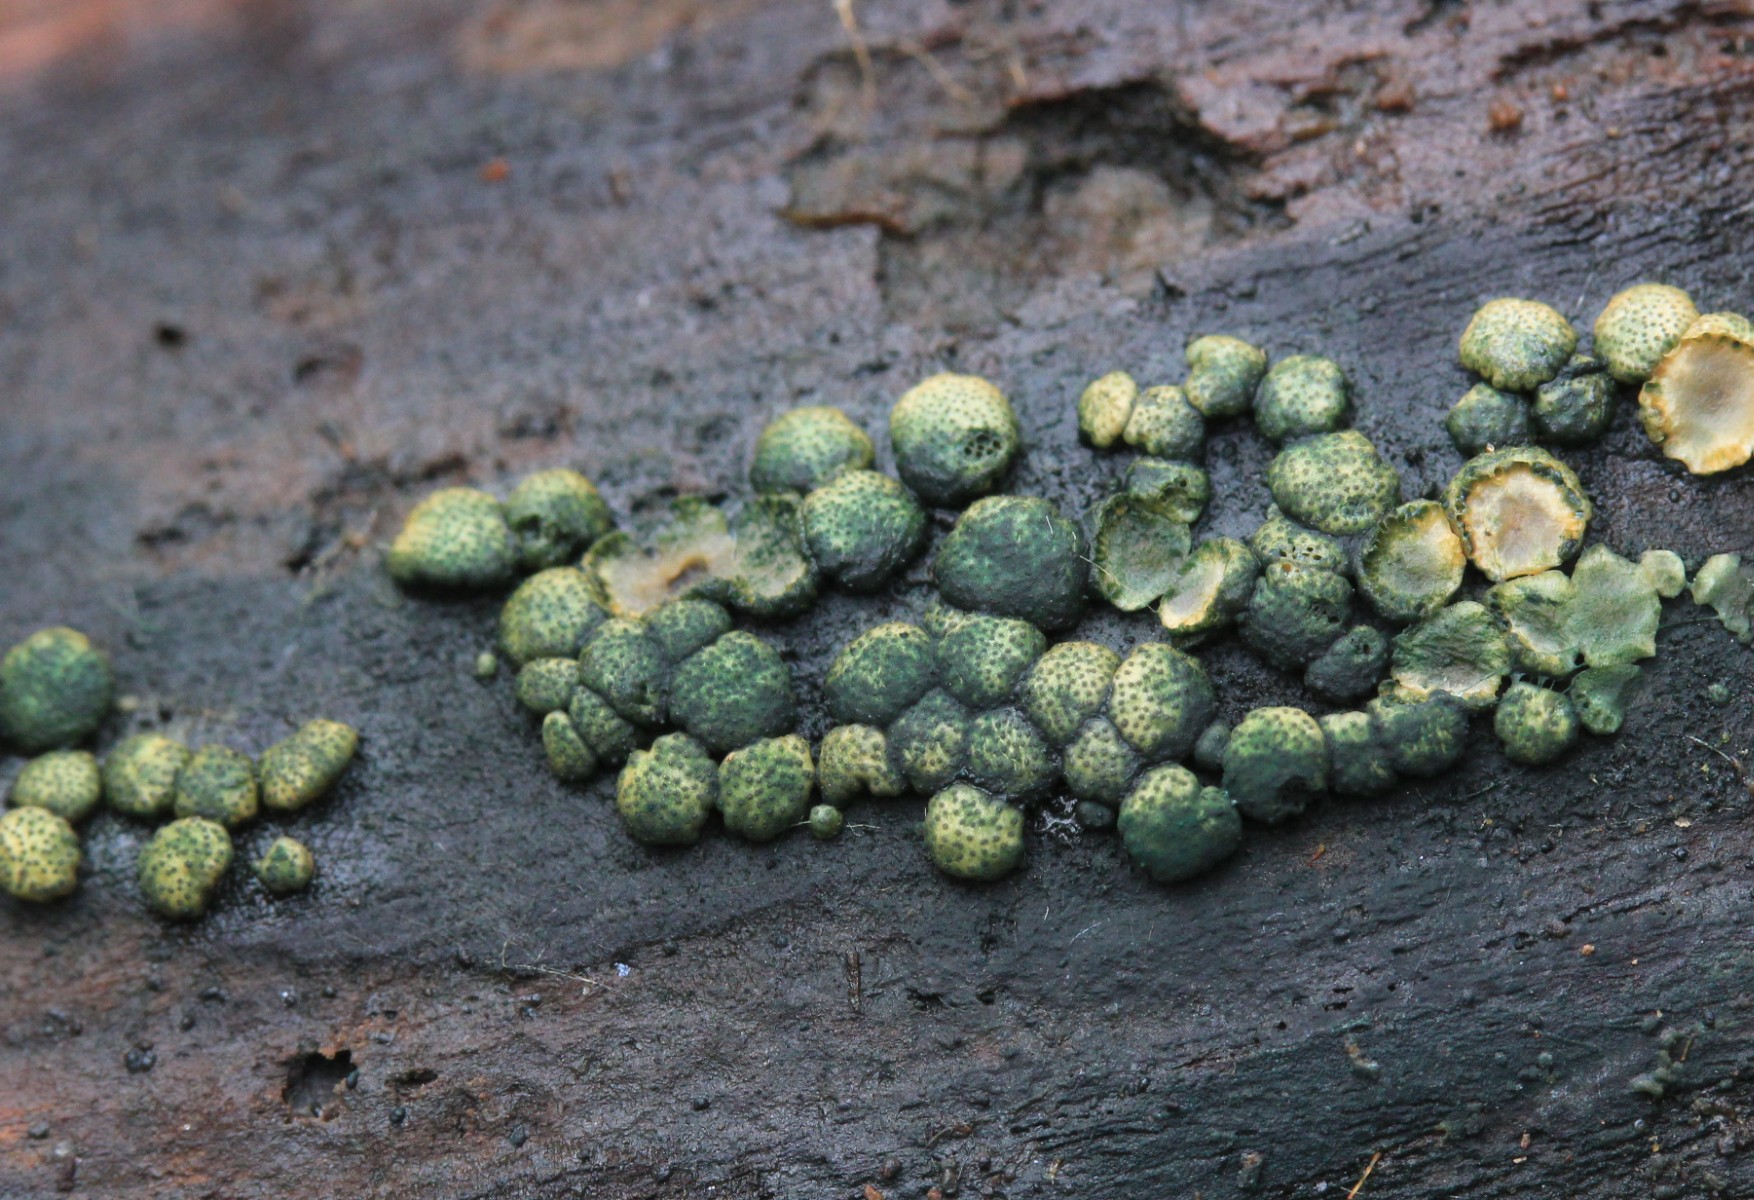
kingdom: Fungi
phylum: Ascomycota
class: Sordariomycetes
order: Hypocreales
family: Hypocreaceae
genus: Trichoderma
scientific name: Trichoderma strictipile
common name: grønprikket kødkerne
